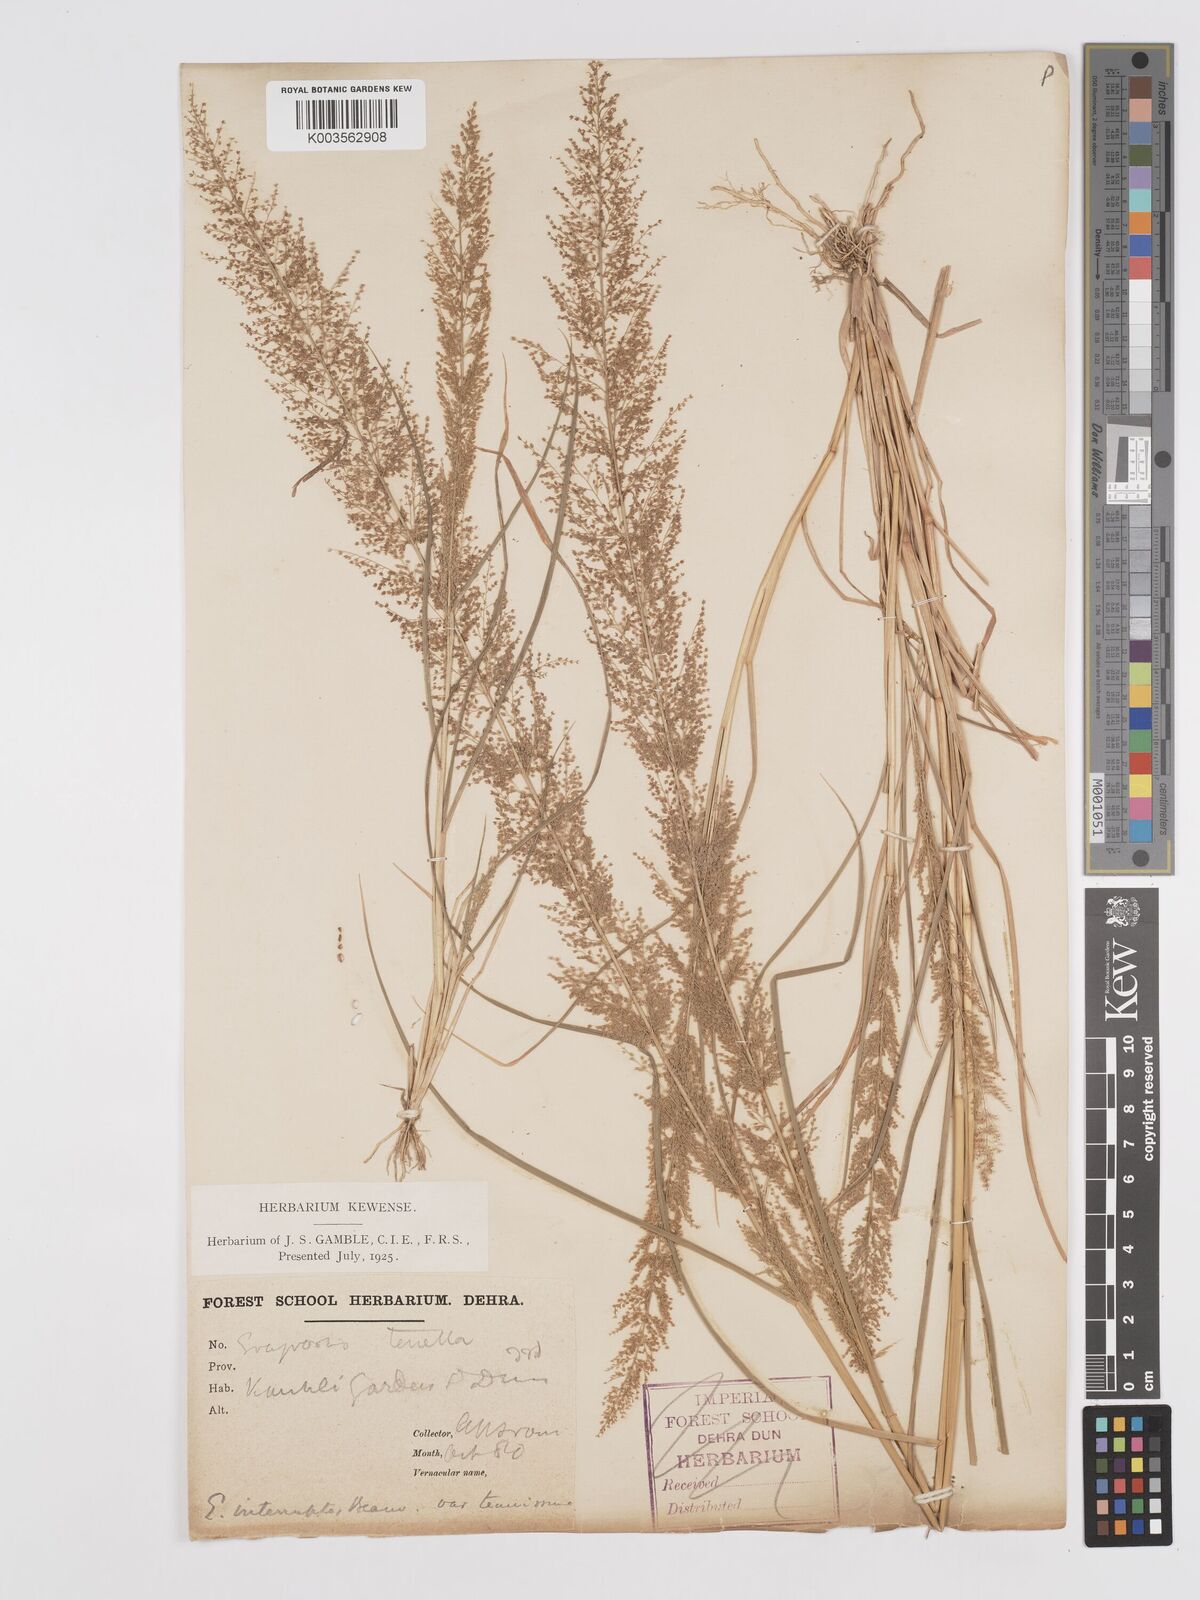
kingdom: Plantae
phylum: Tracheophyta
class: Liliopsida
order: Poales
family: Poaceae
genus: Eragrostis
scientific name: Eragrostis japonica
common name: Pond lovegrass
